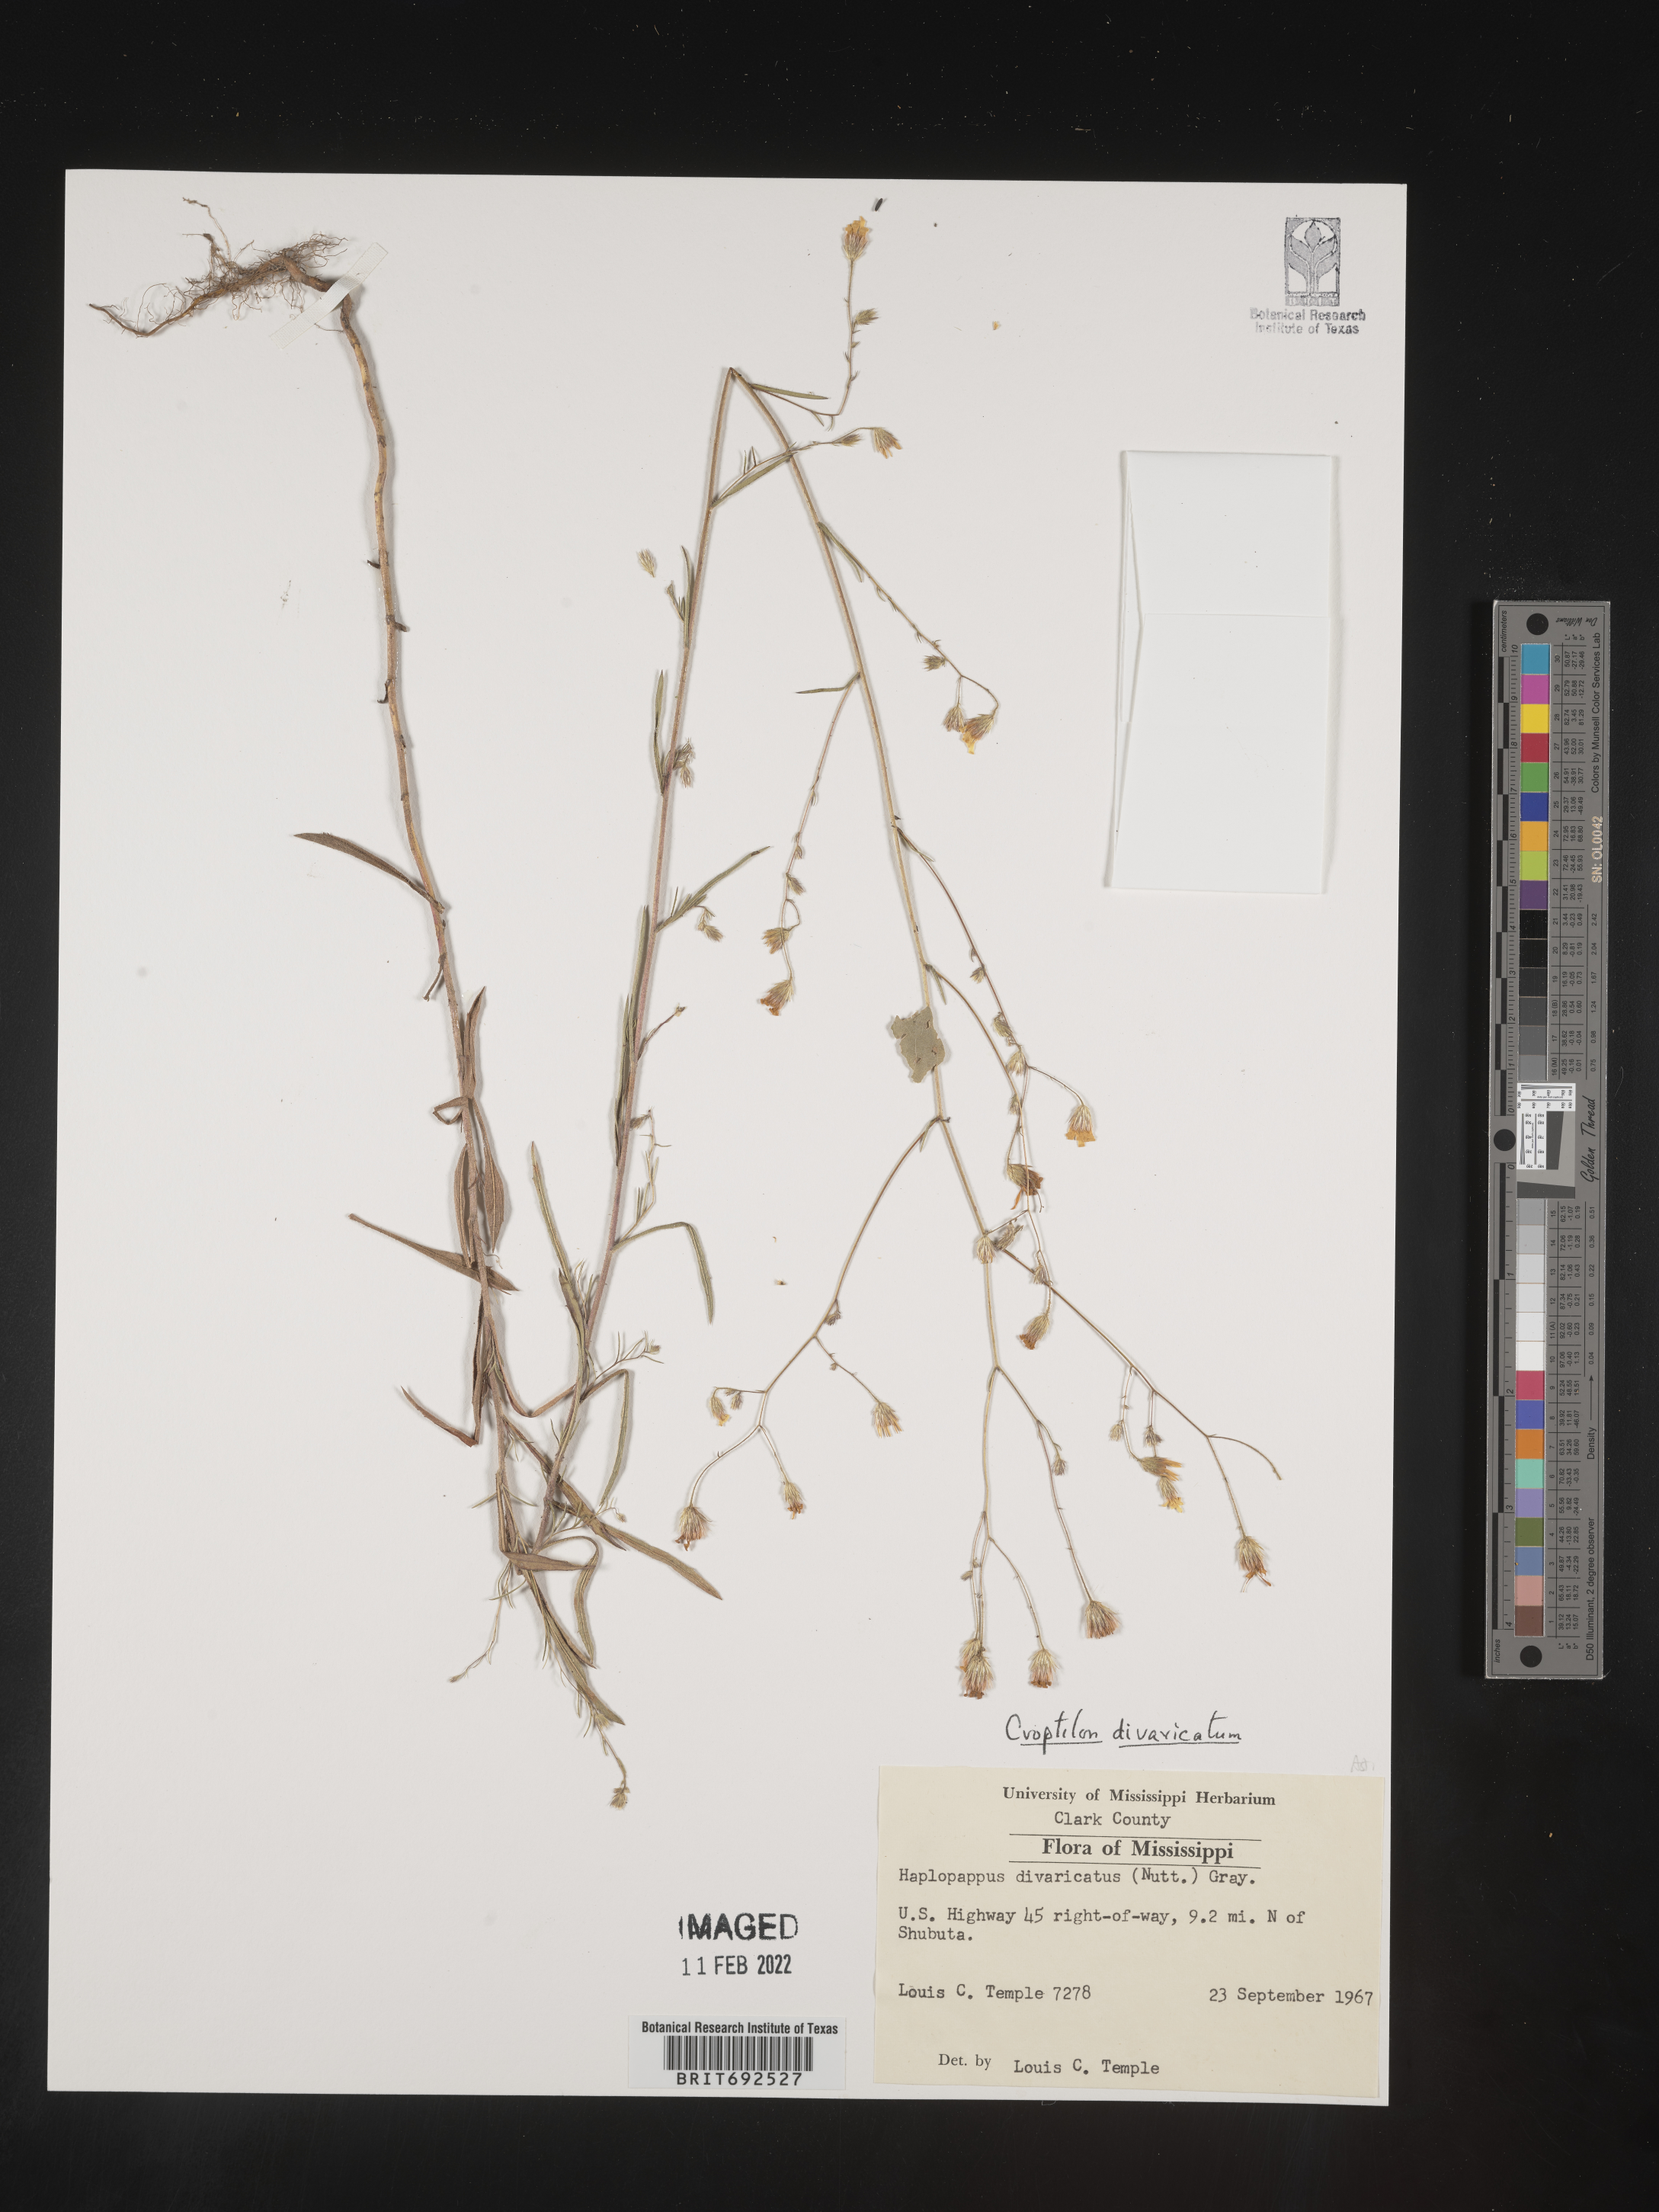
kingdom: Plantae
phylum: Tracheophyta
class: Magnoliopsida
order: Asterales
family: Asteraceae
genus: Croptilon
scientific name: Croptilon divaricatum
